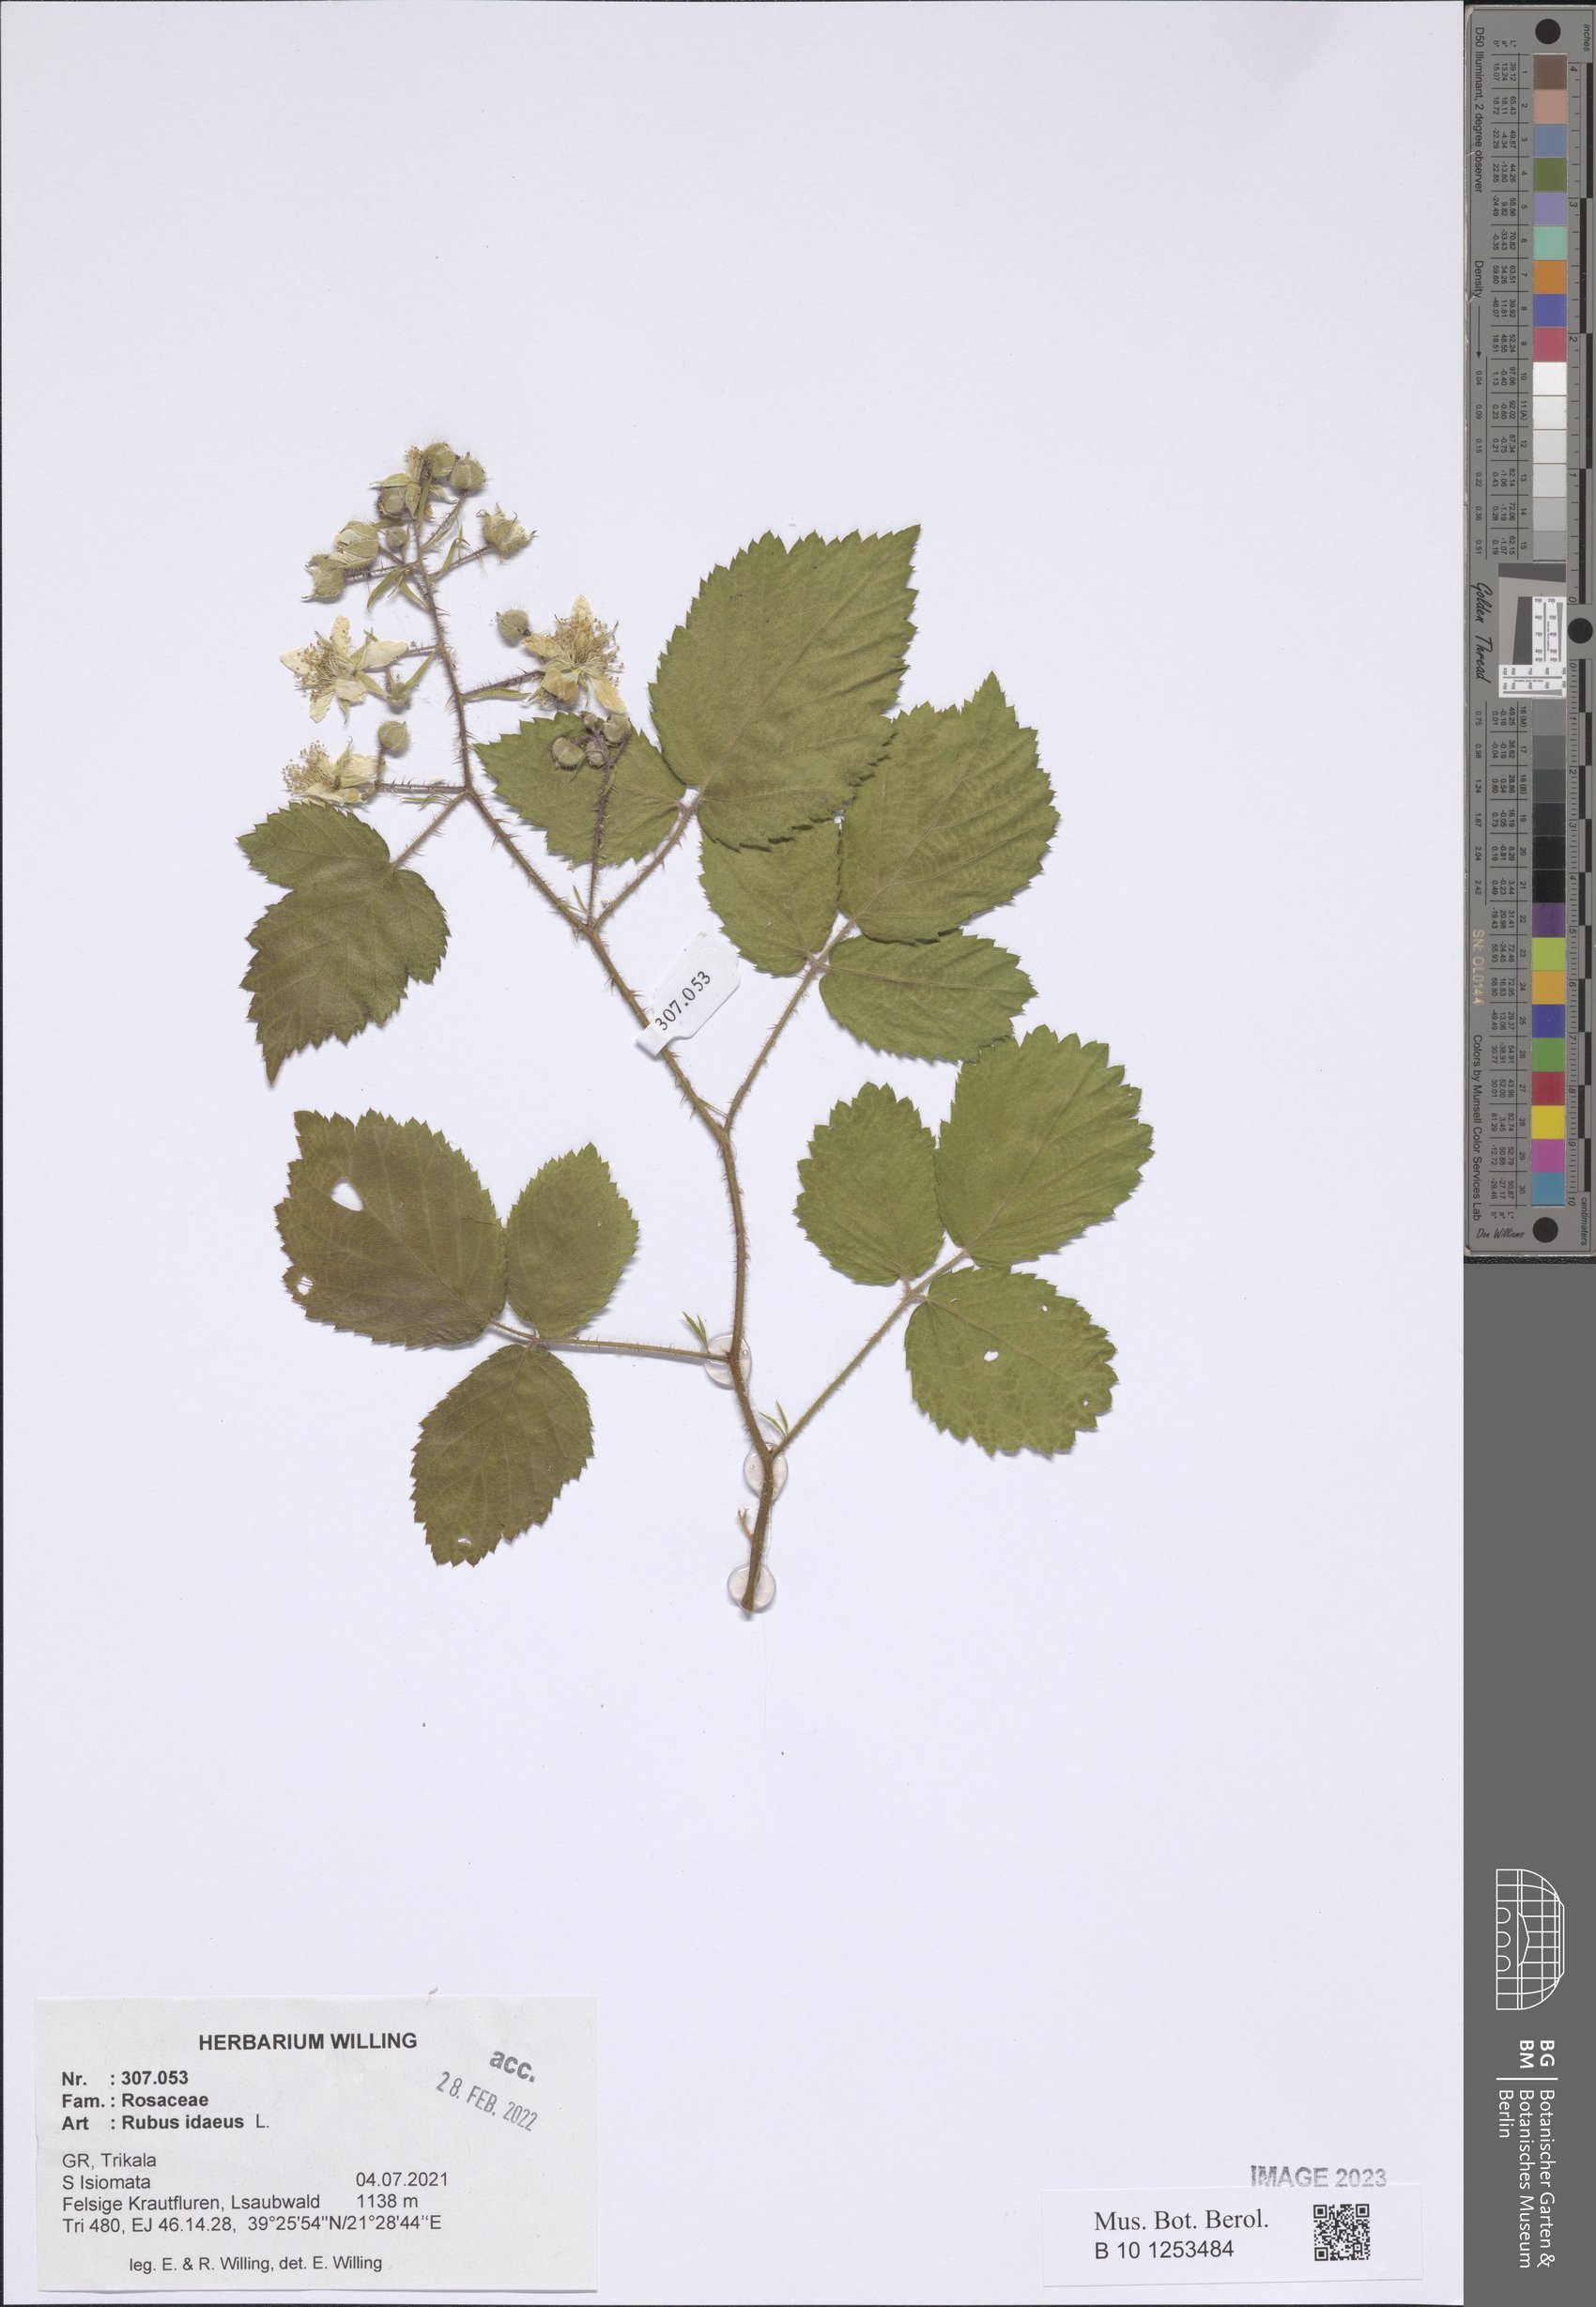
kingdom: Plantae
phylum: Tracheophyta
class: Magnoliopsida
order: Rosales
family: Rosaceae
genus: Rubus
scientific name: Rubus idaeus
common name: Raspberry
